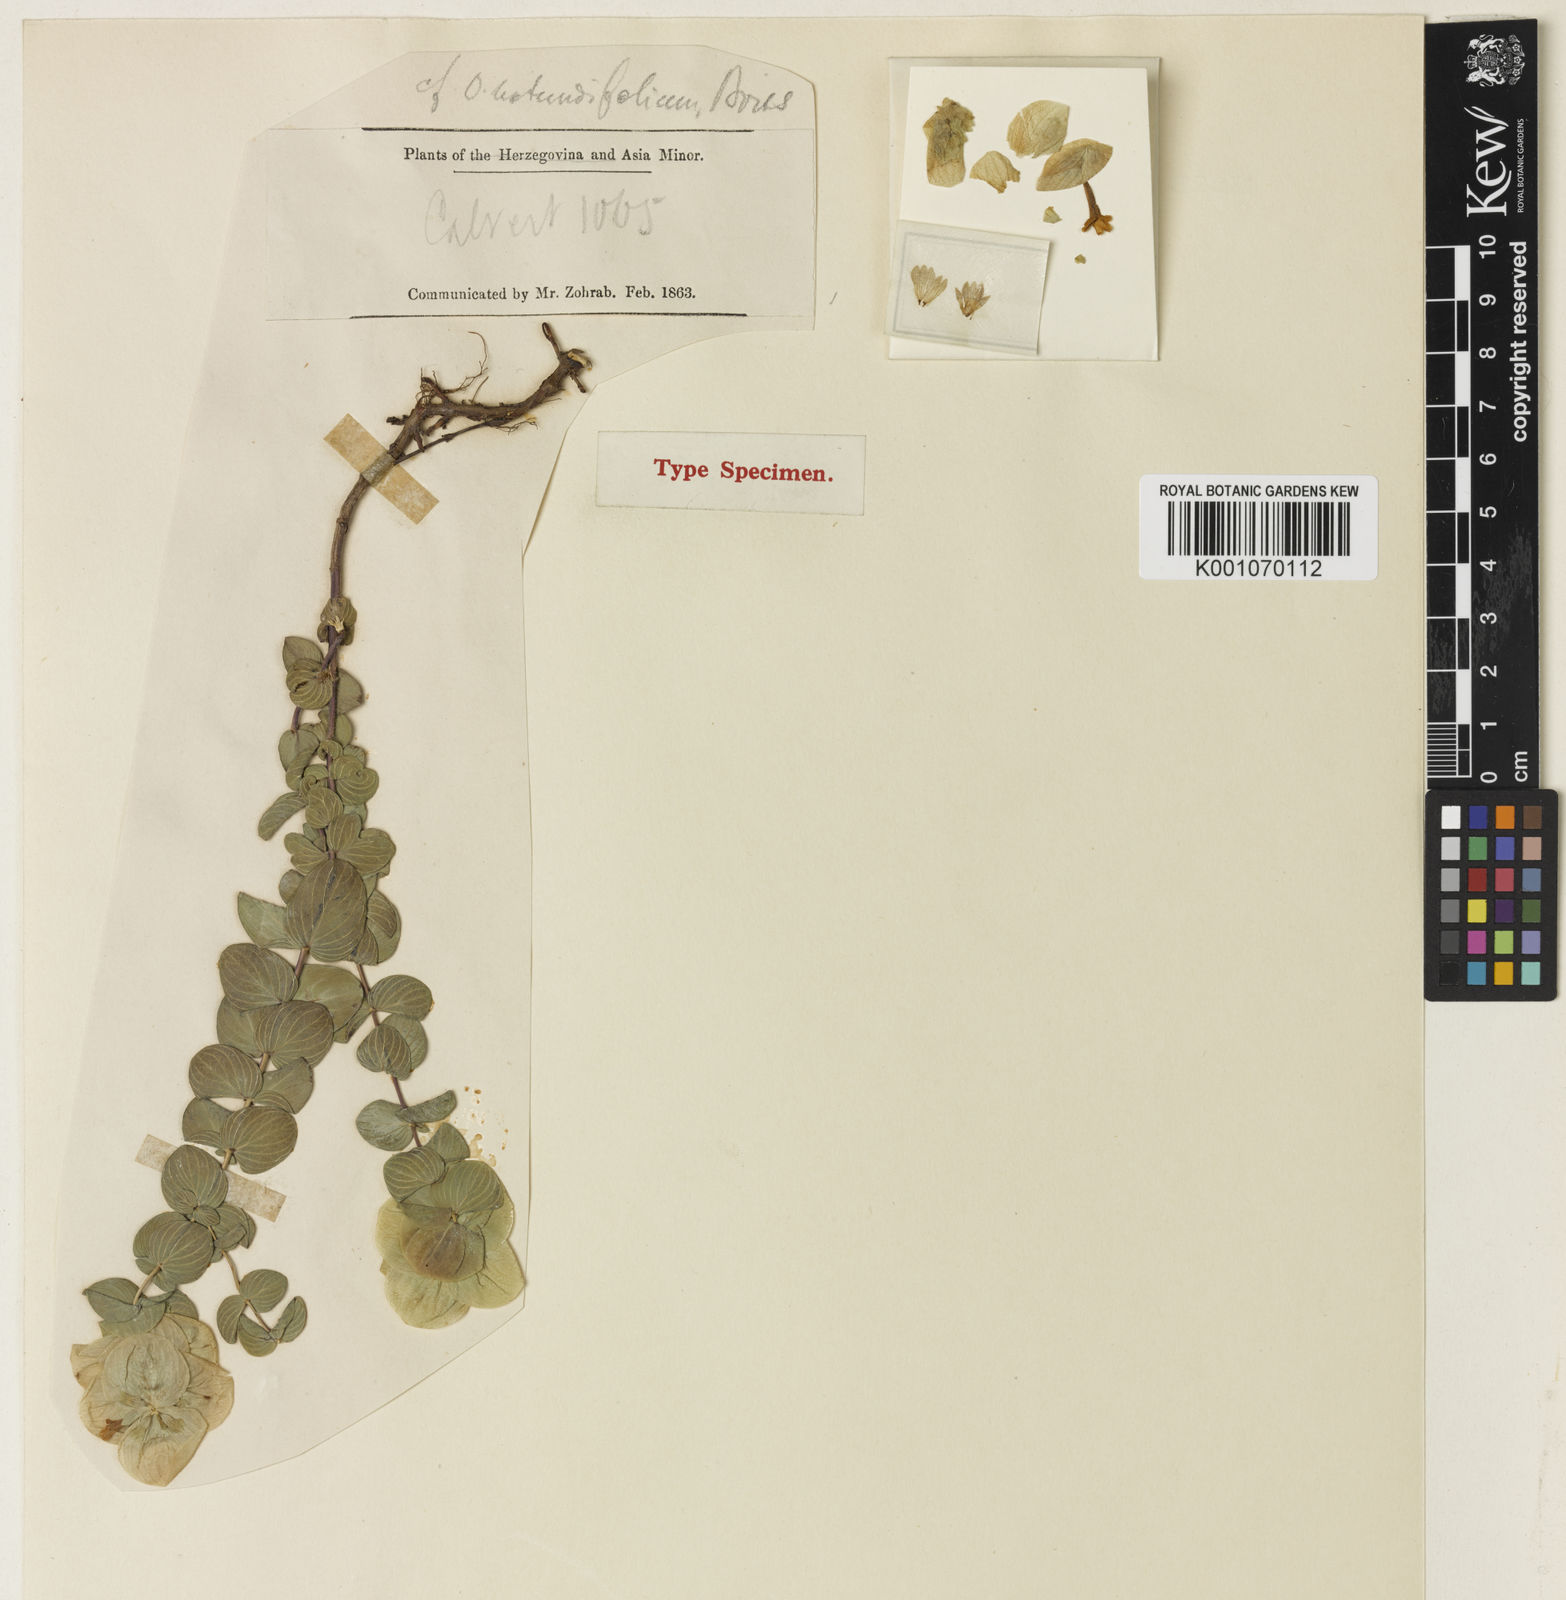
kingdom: Plantae
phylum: Tracheophyta
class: Magnoliopsida
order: Lamiales
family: Lamiaceae
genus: Origanum
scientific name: Origanum rotundifolium
